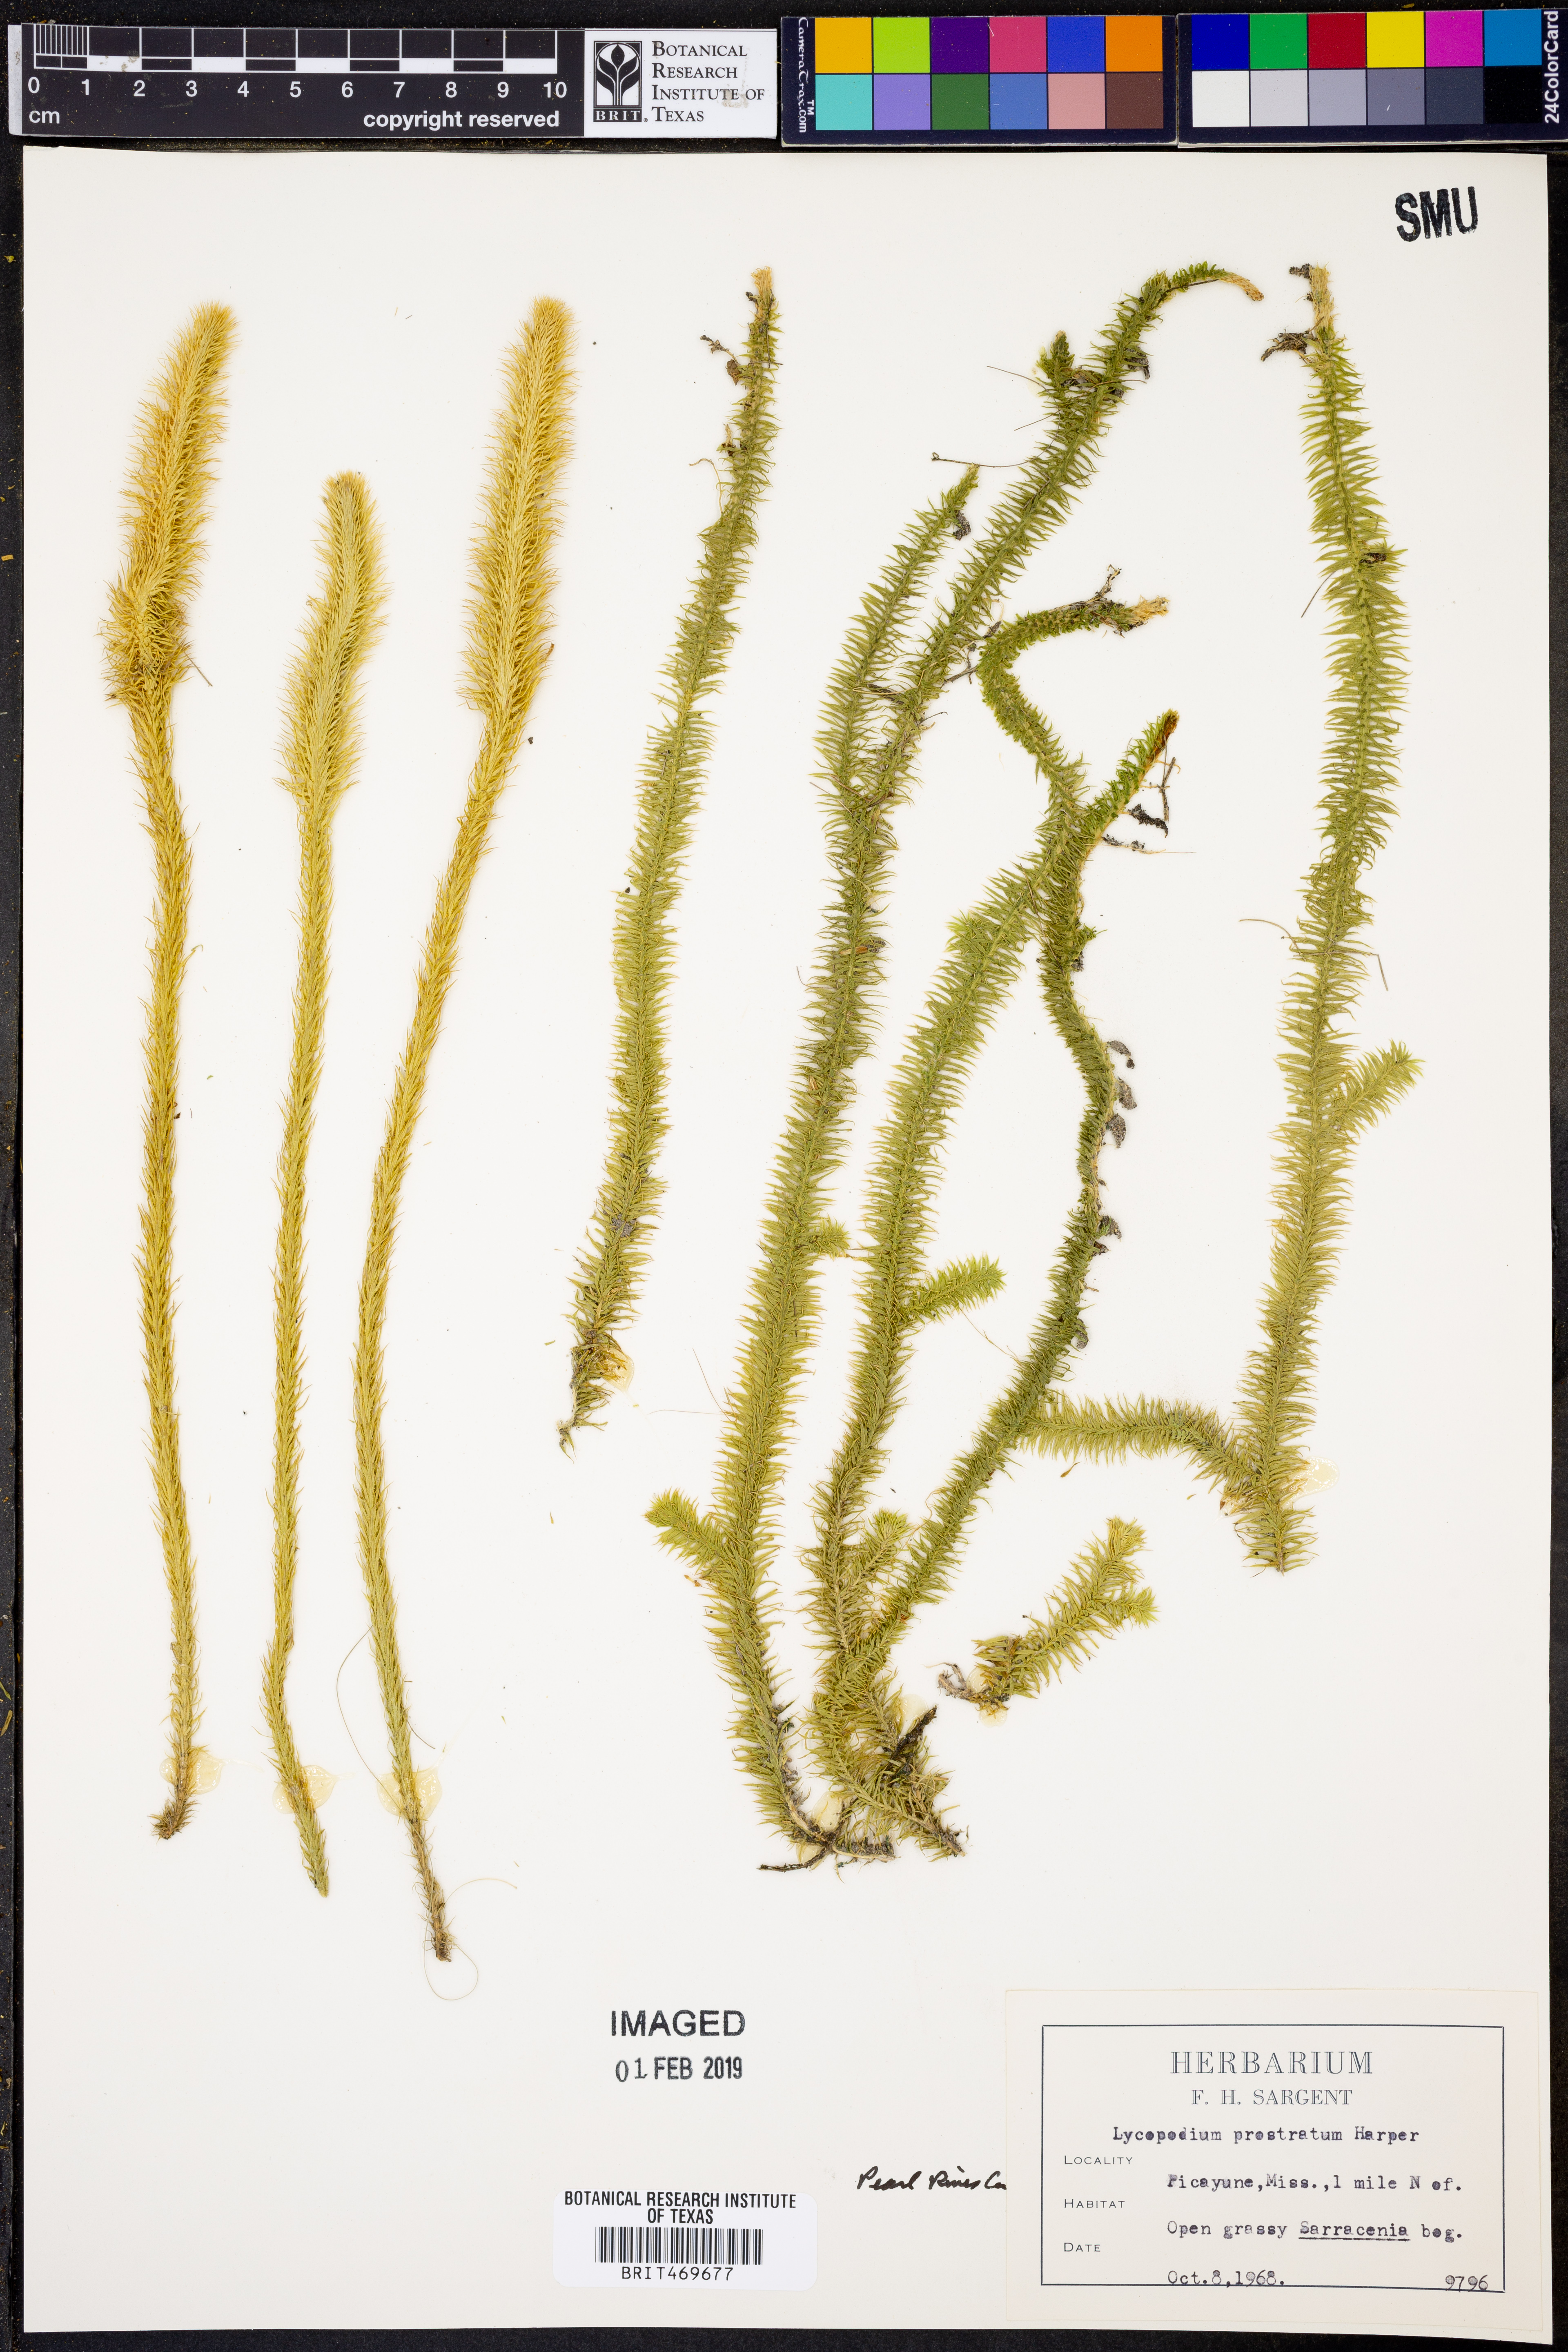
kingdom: Plantae
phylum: Tracheophyta
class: Lycopodiopsida
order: Lycopodiales
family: Lycopodiaceae
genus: Lycopodiella
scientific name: Lycopodiella prostrata
